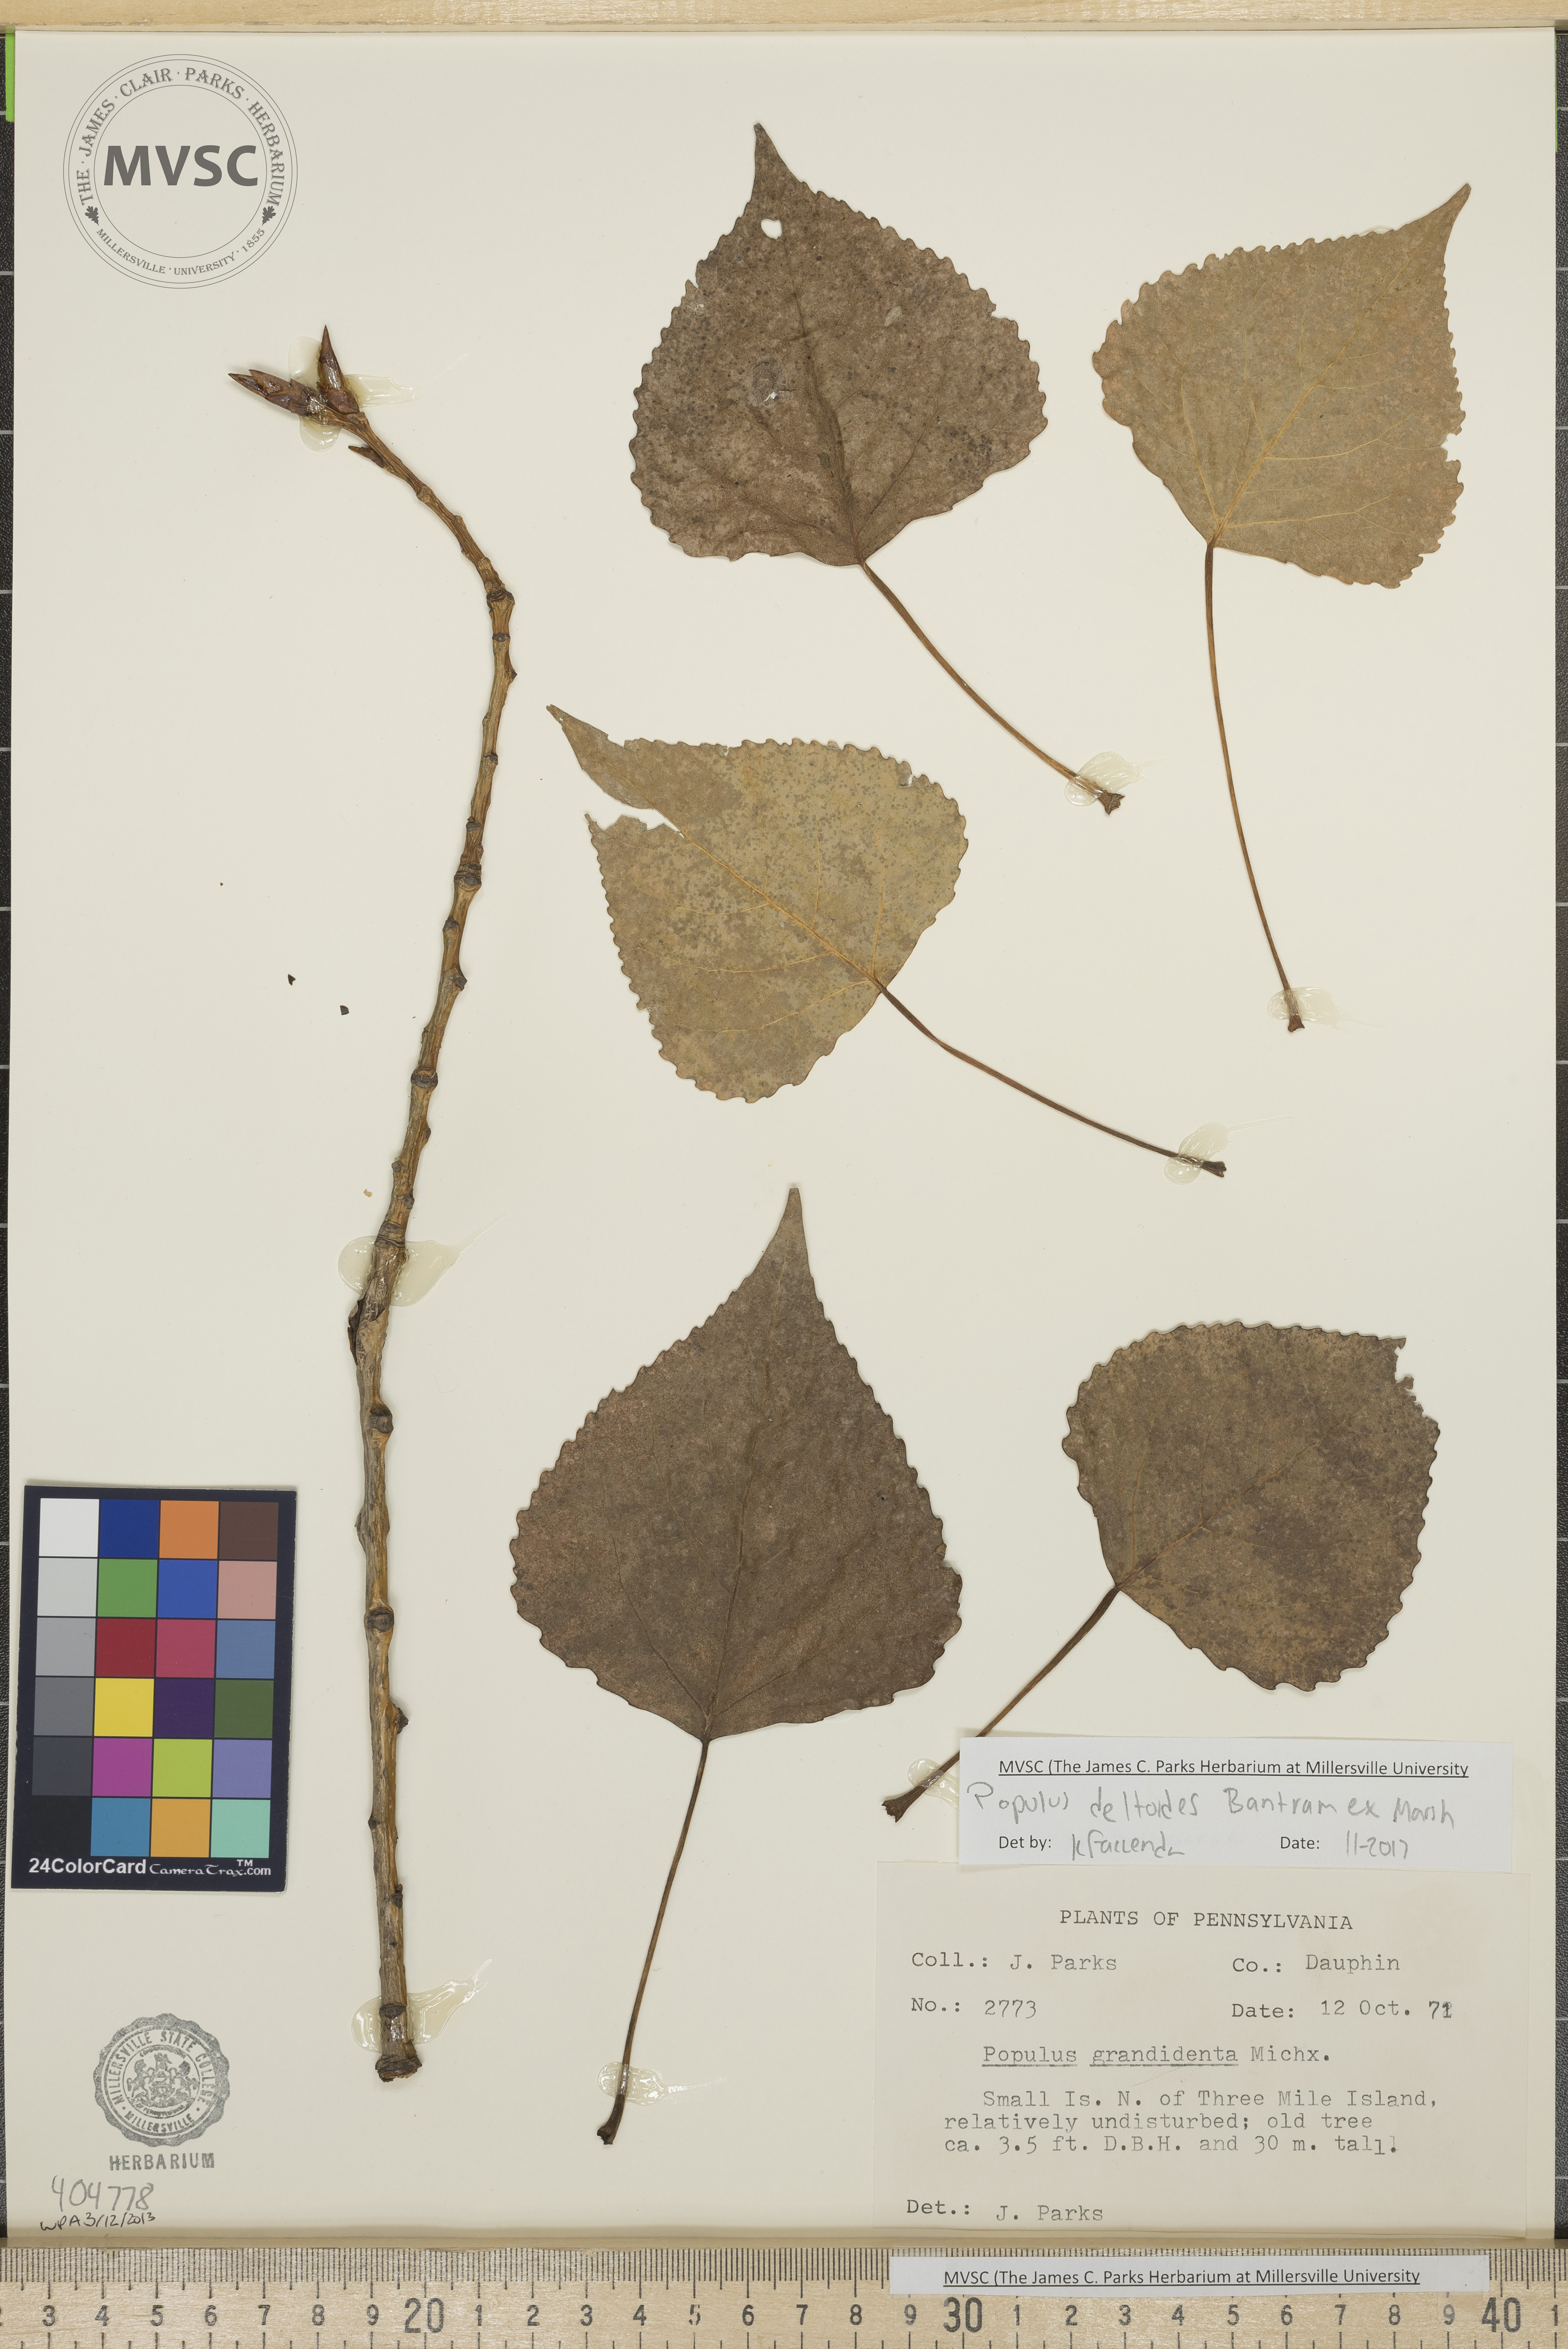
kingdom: Plantae
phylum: Tracheophyta
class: Magnoliopsida
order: Malpighiales
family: Salicaceae
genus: Populus
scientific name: Populus deltoides
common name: Eastern cottonwood
